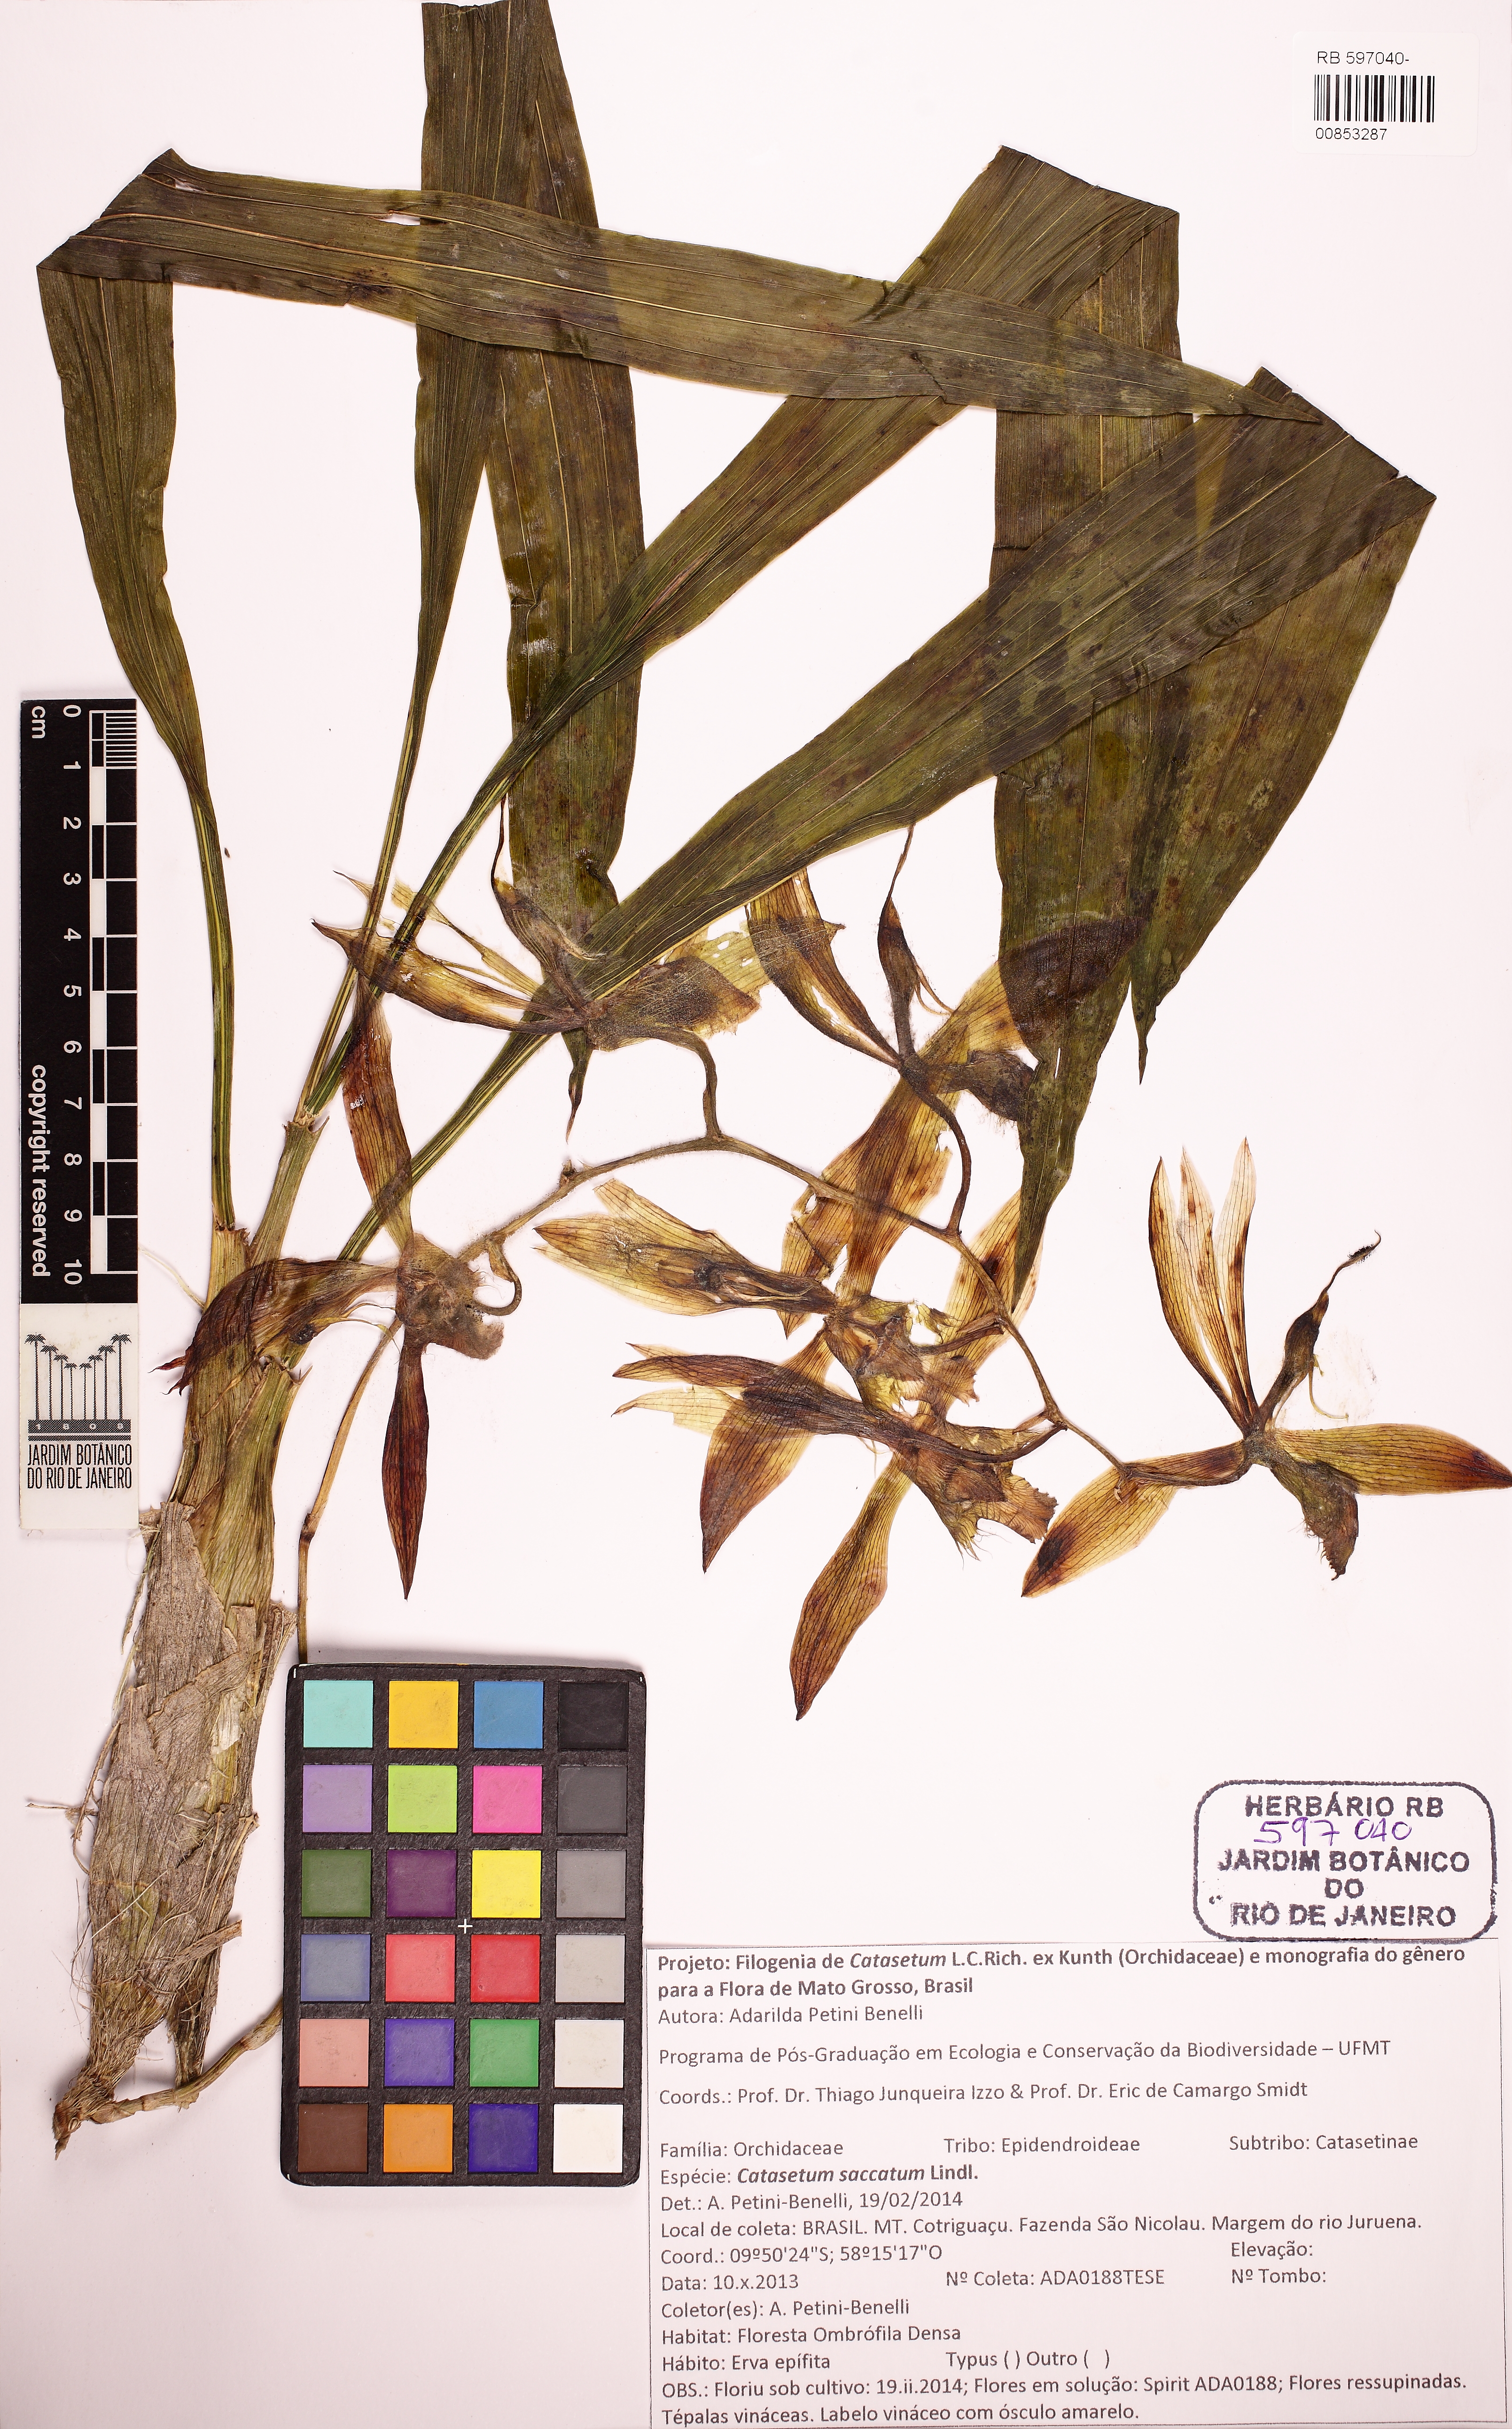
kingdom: Plantae
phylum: Tracheophyta
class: Liliopsida
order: Asparagales
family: Orchidaceae
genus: Catasetum
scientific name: Catasetum saccatum
